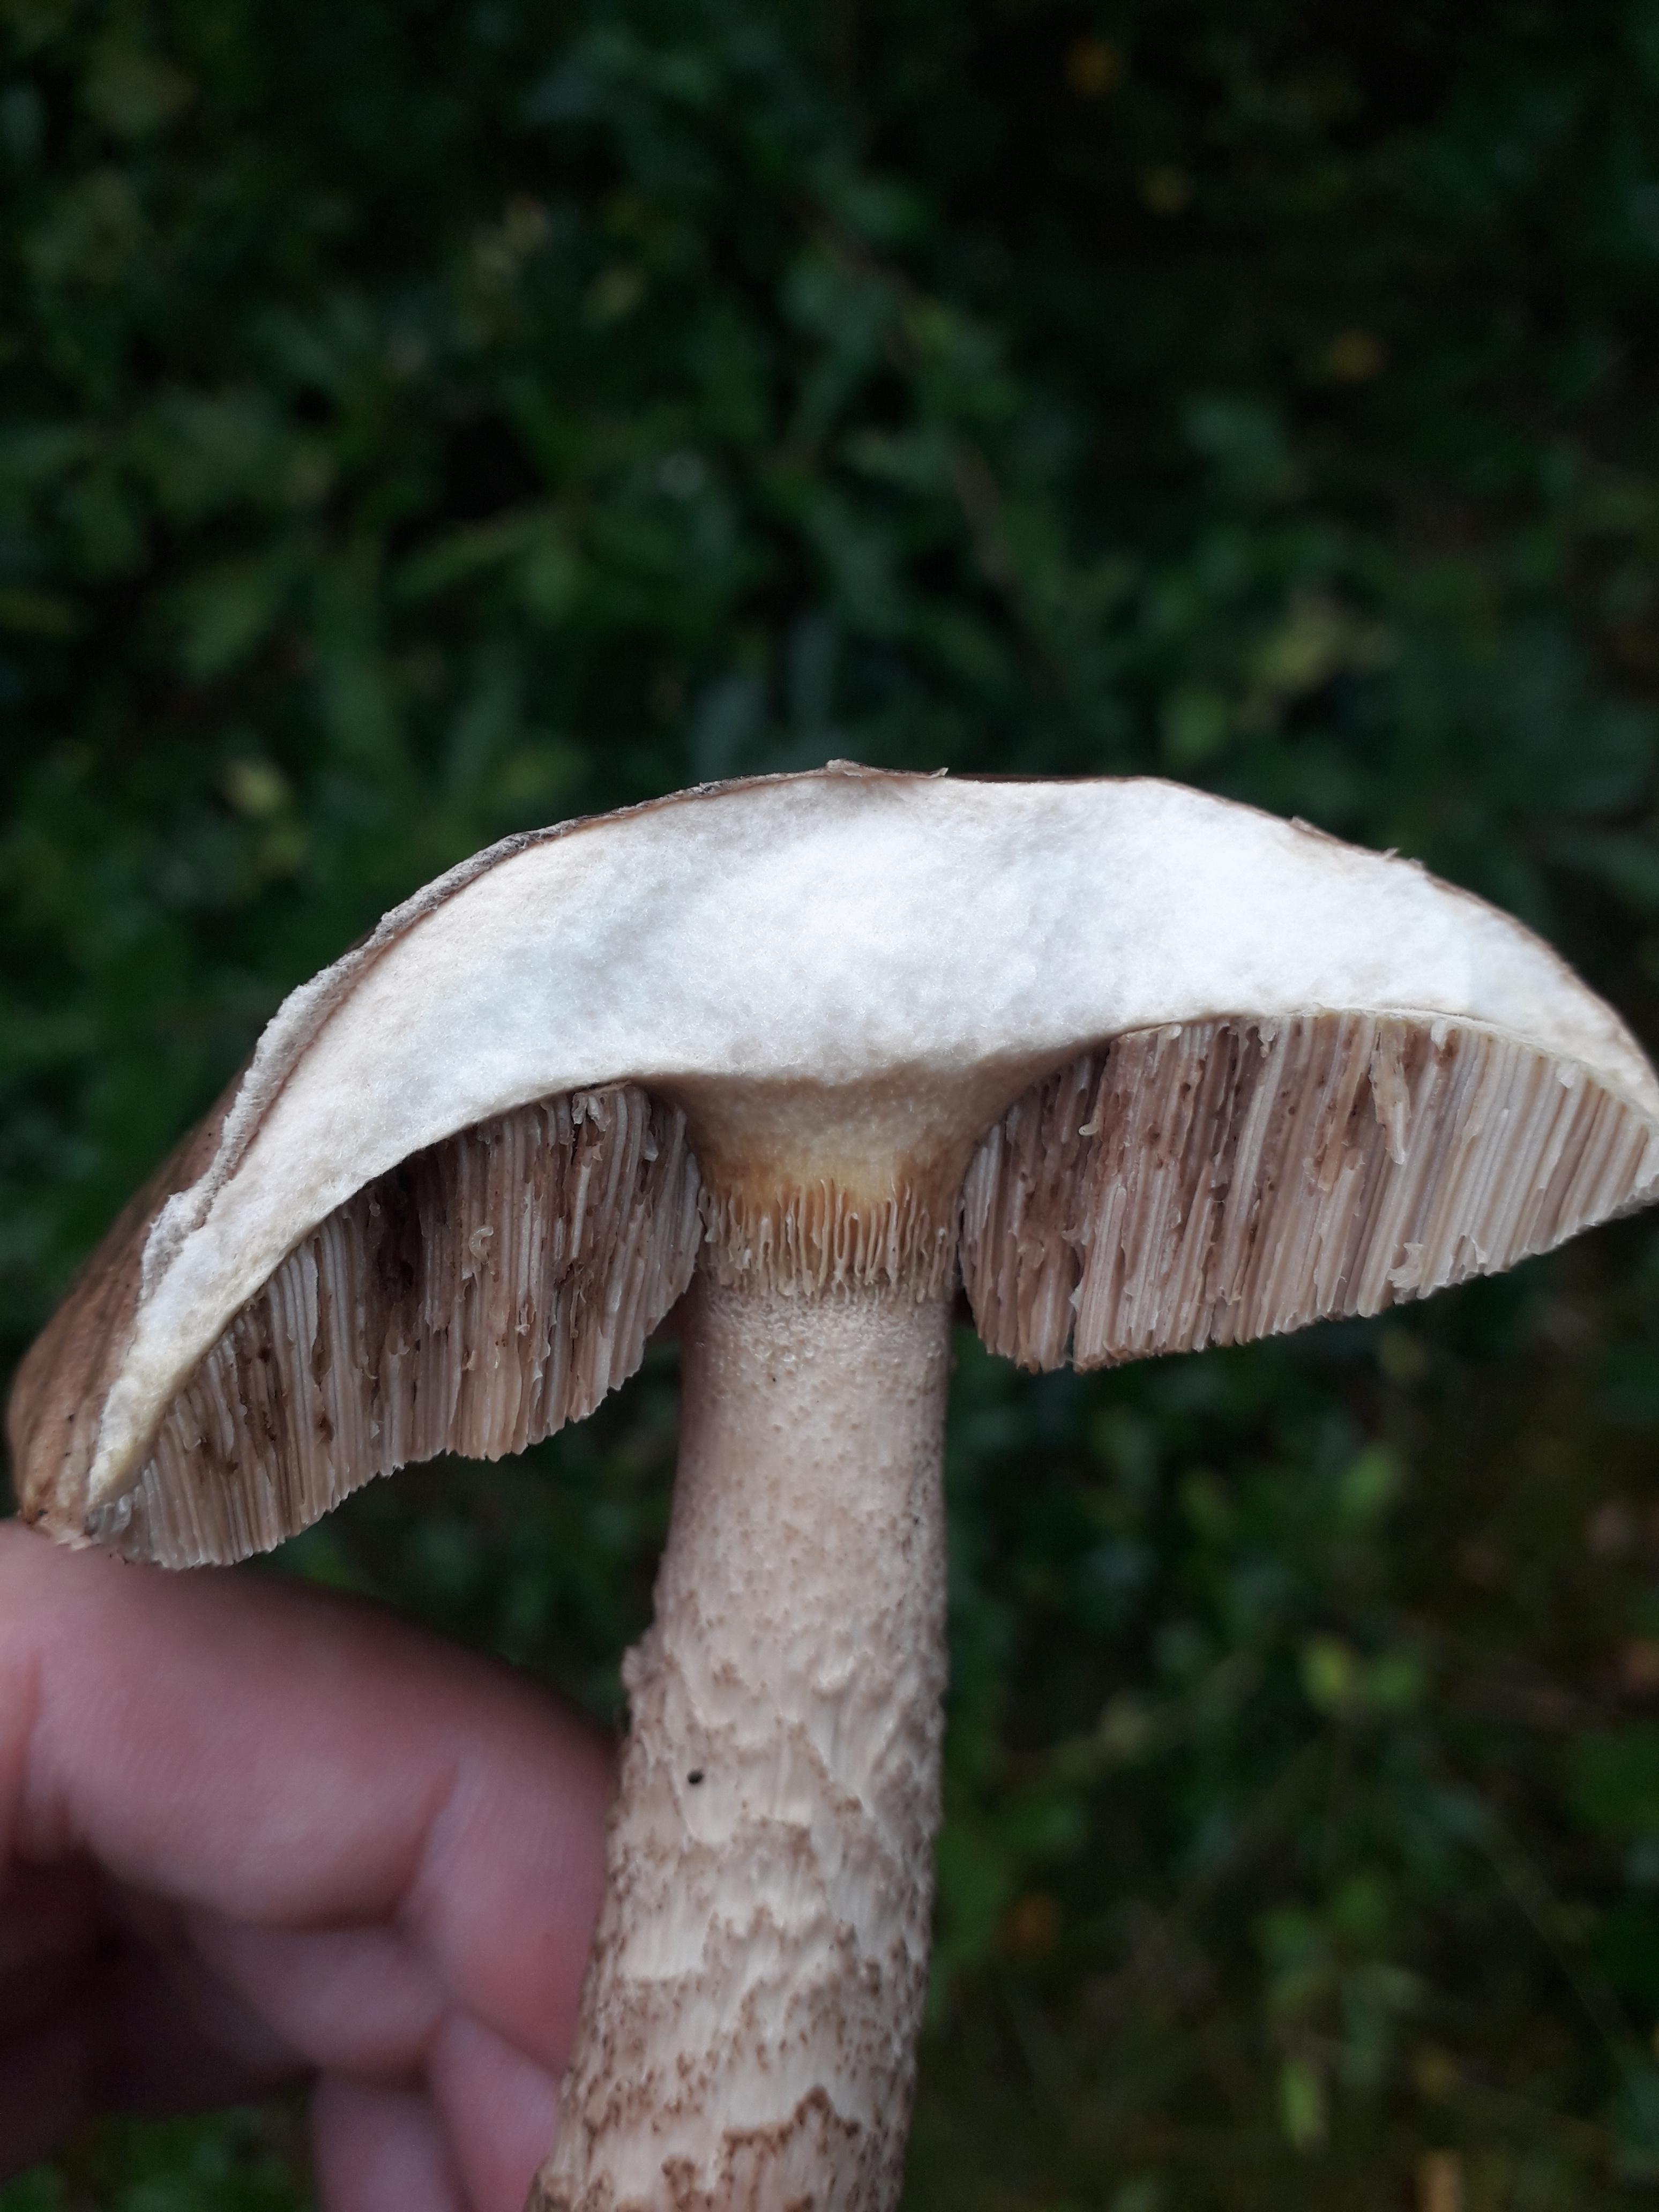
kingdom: Fungi
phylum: Basidiomycota
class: Agaricomycetes
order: Boletales
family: Boletaceae
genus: Leccinum
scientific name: Leccinum scabrum
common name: brun skælrørhat
